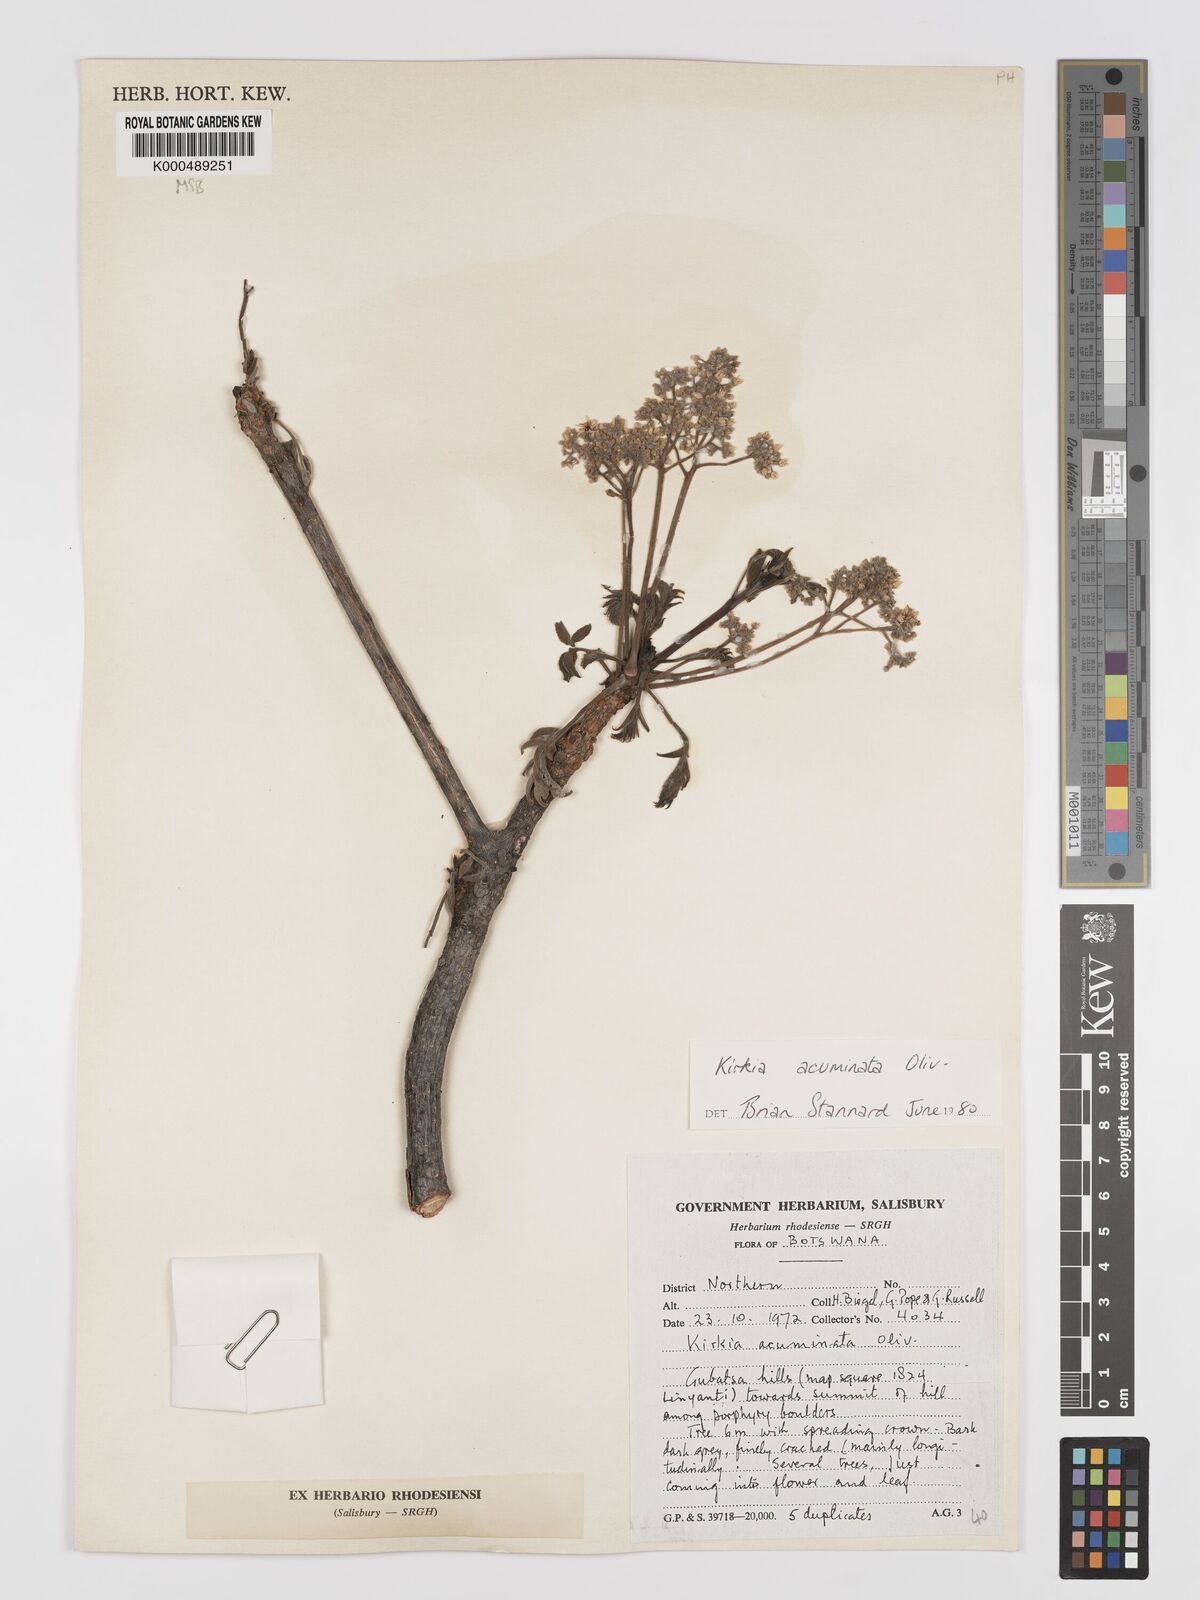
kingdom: Plantae
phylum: Tracheophyta
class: Magnoliopsida
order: Sapindales
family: Kirkiaceae
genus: Kirkia
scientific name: Kirkia acuminata
